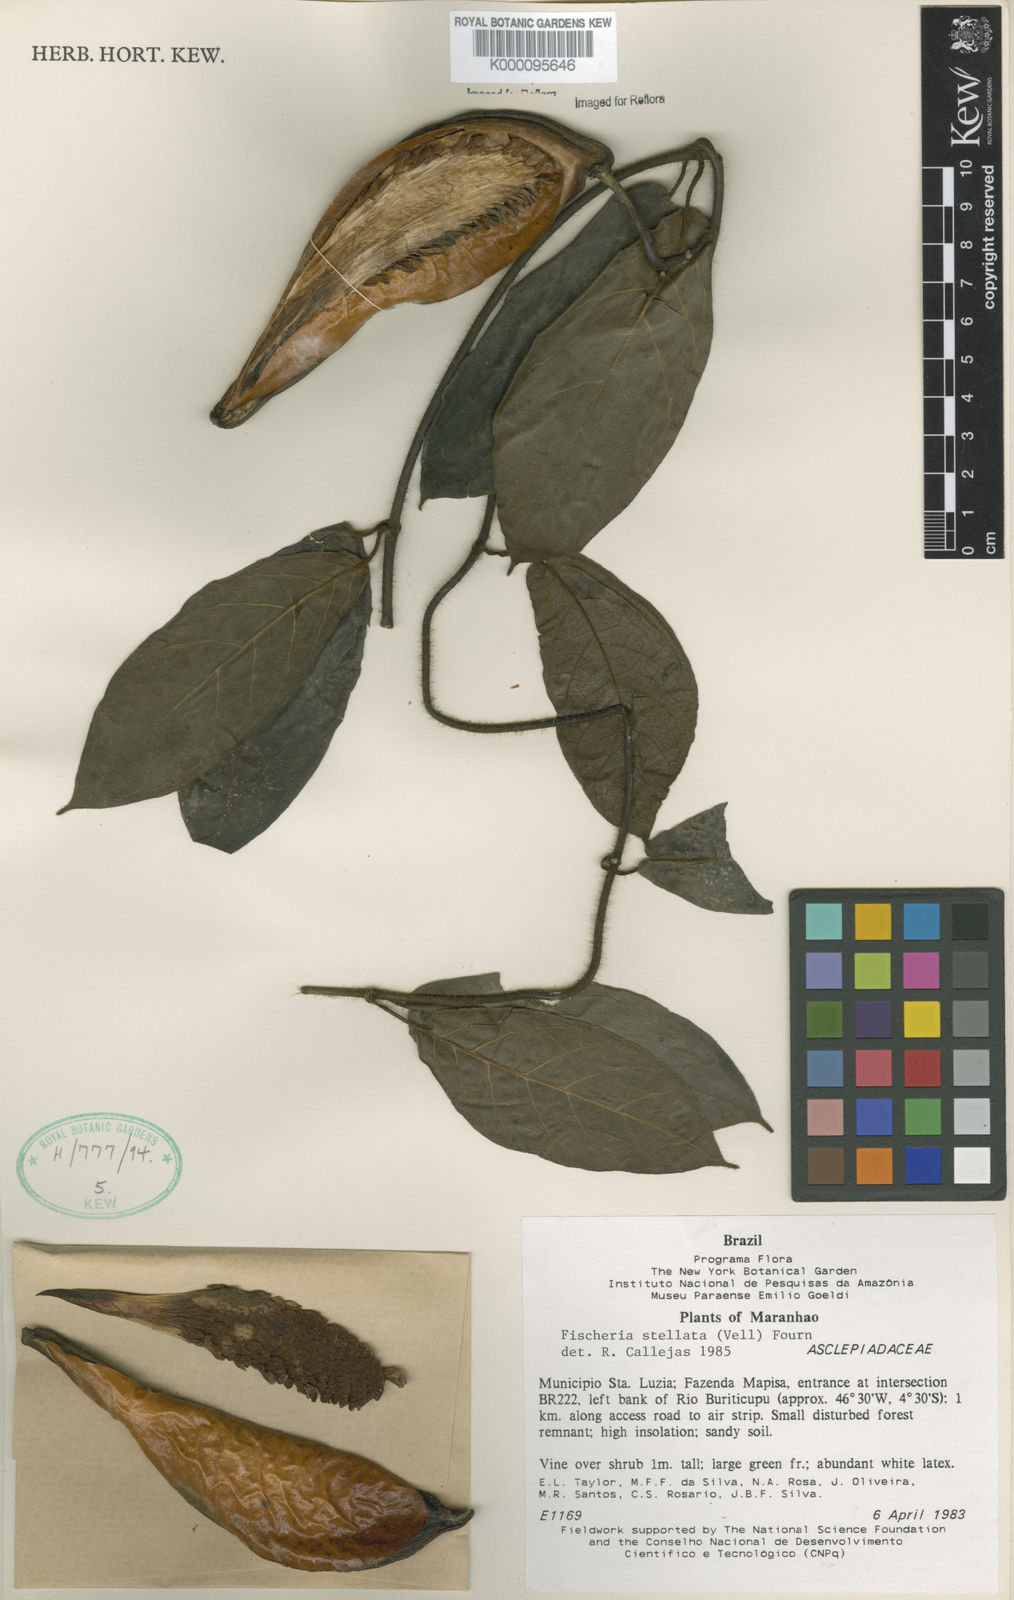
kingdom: Plantae
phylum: Tracheophyta
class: Magnoliopsida
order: Gentianales
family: Apocynaceae
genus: Fischeria
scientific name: Fischeria stellata
